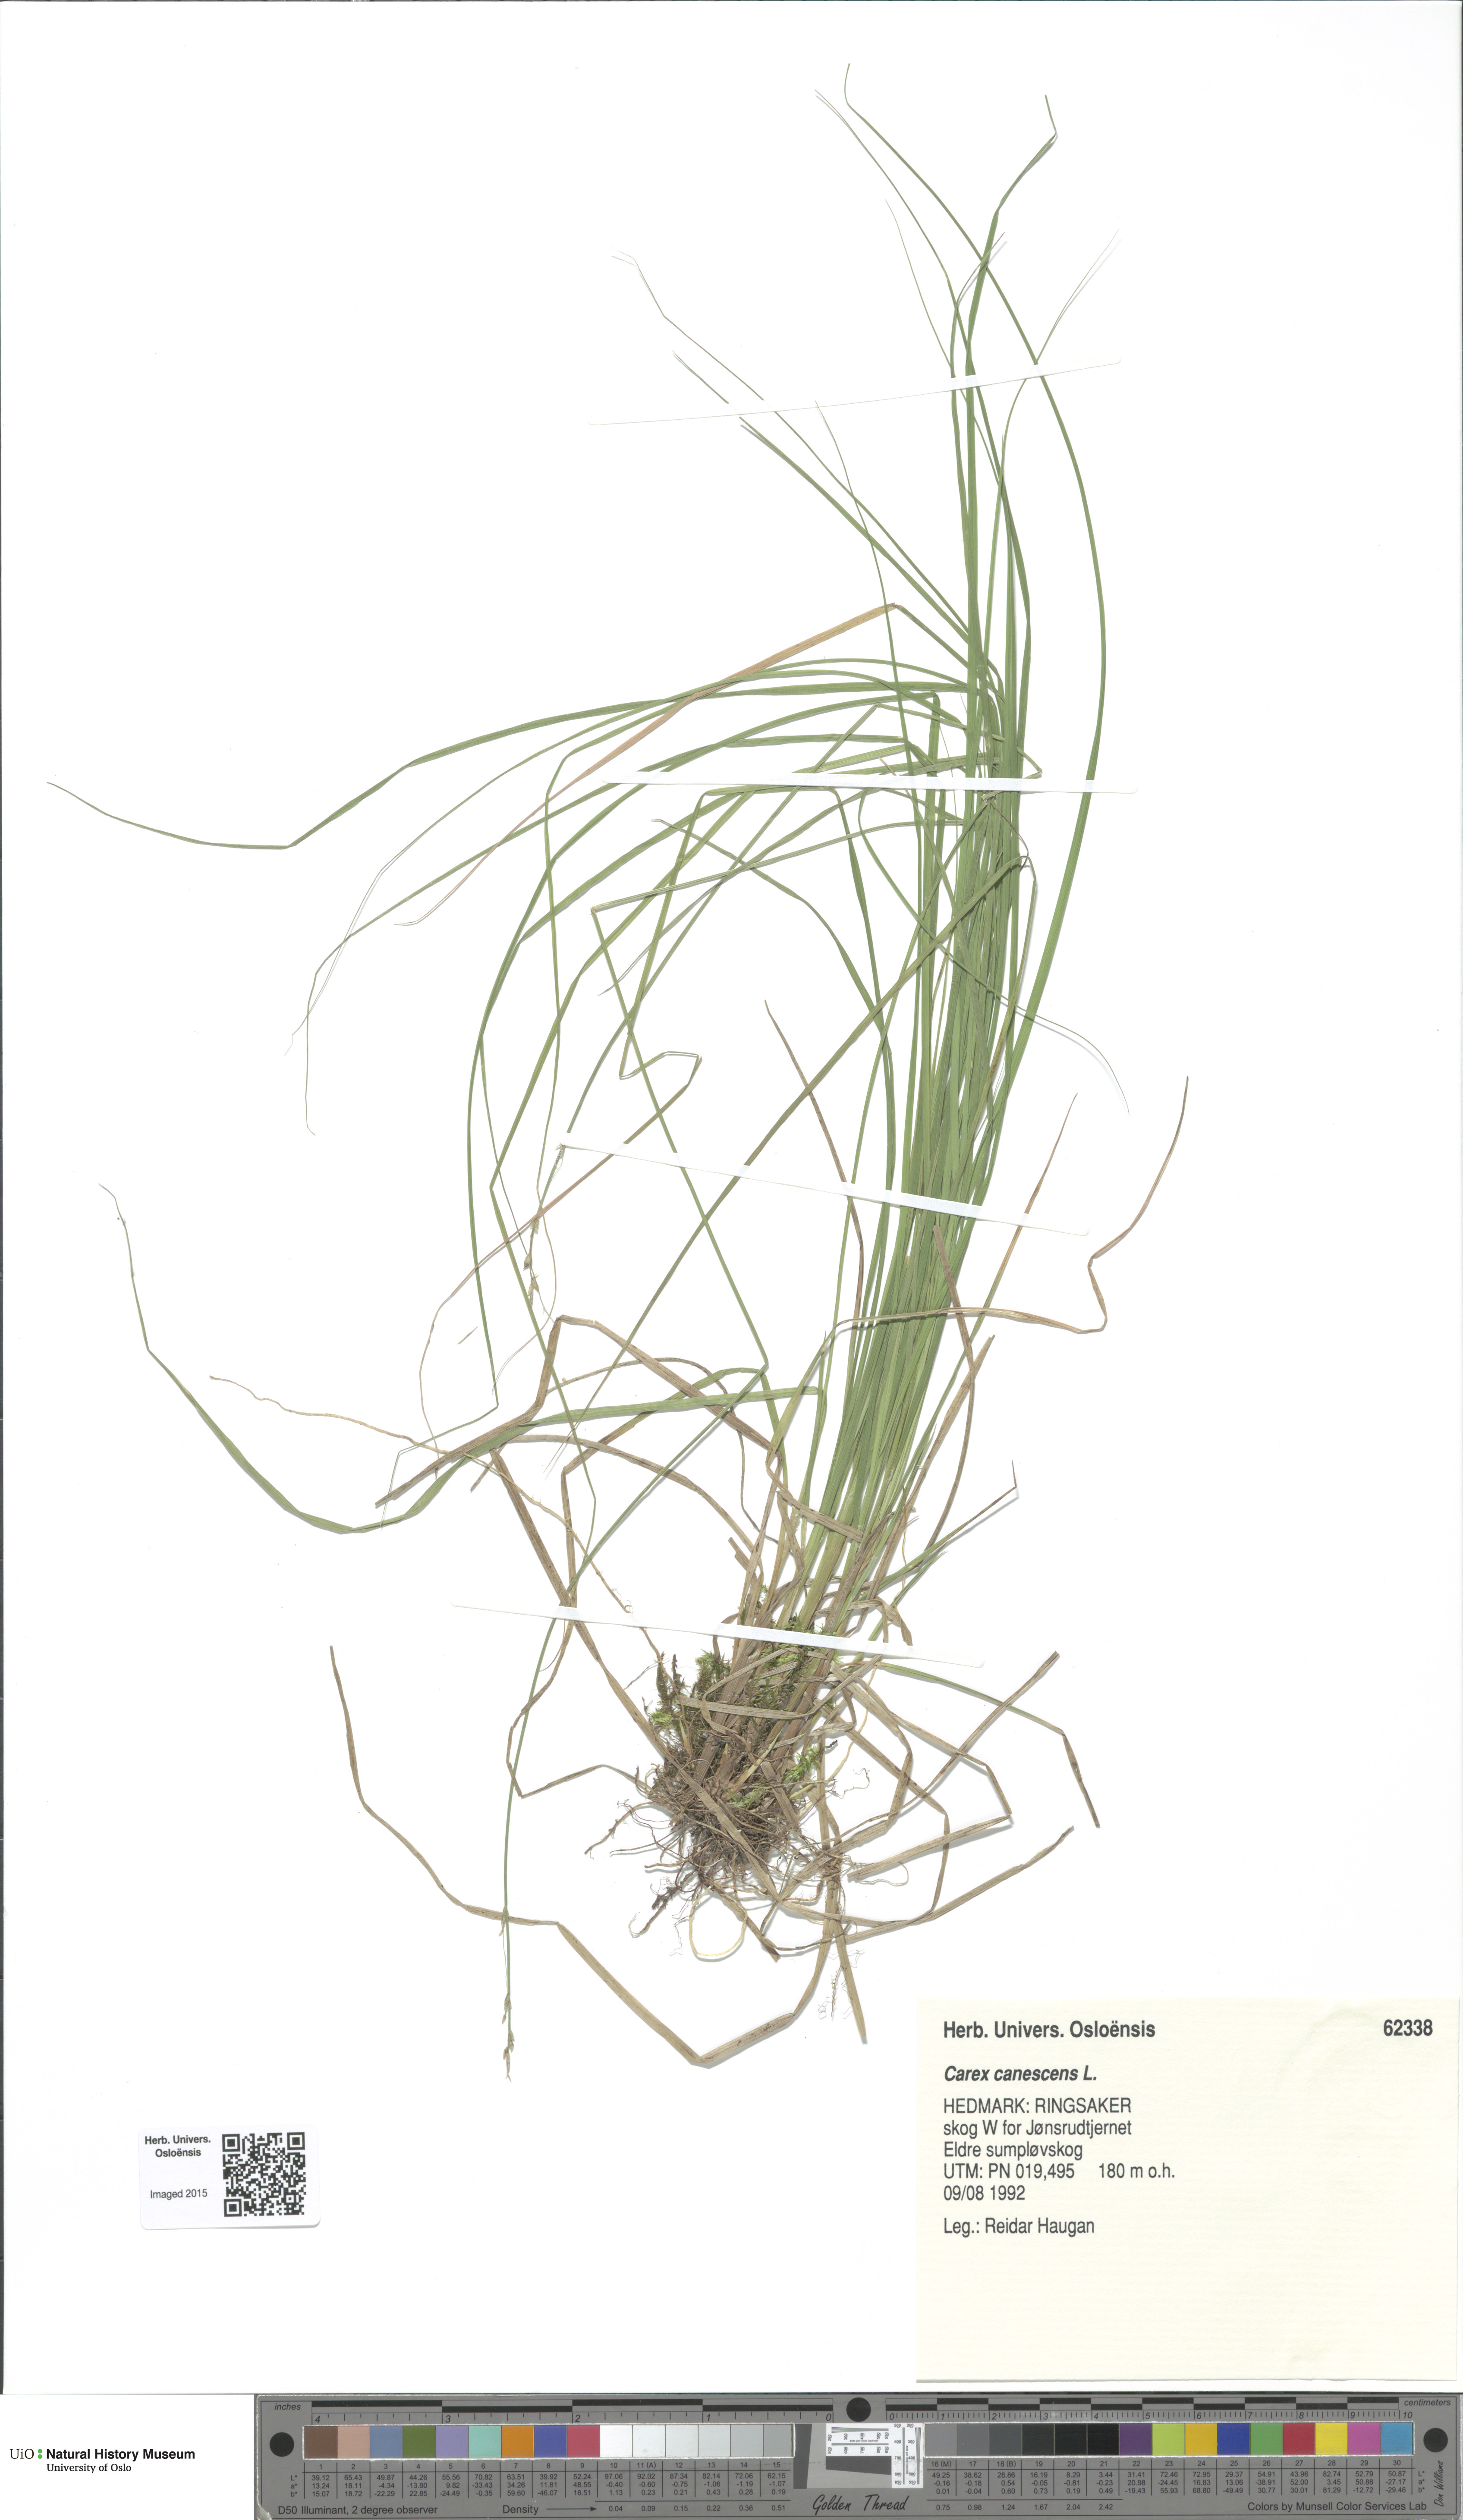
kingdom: Plantae
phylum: Tracheophyta
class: Liliopsida
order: Poales
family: Cyperaceae
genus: Carex
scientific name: Carex canescens
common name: White sedge
